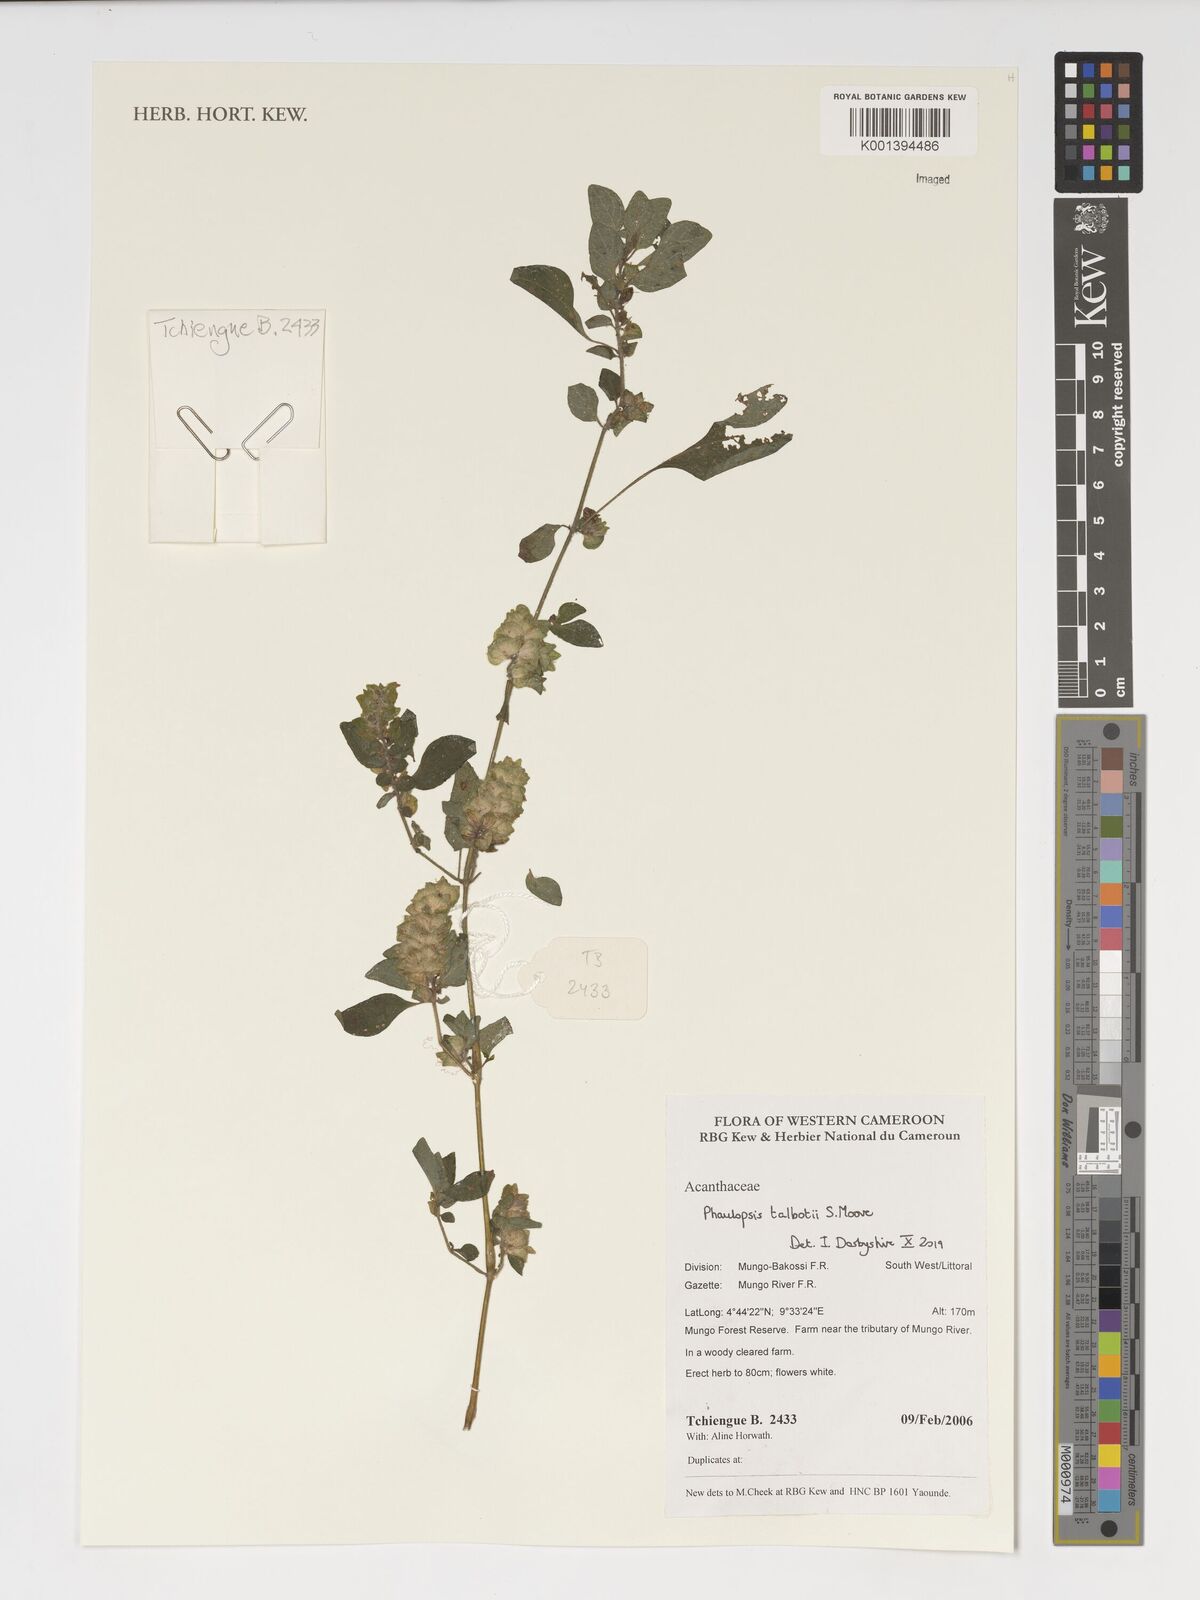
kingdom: Plantae
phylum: Tracheophyta
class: Magnoliopsida
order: Lamiales
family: Acanthaceae
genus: Phaulopsis
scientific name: Phaulopsis talbotii
